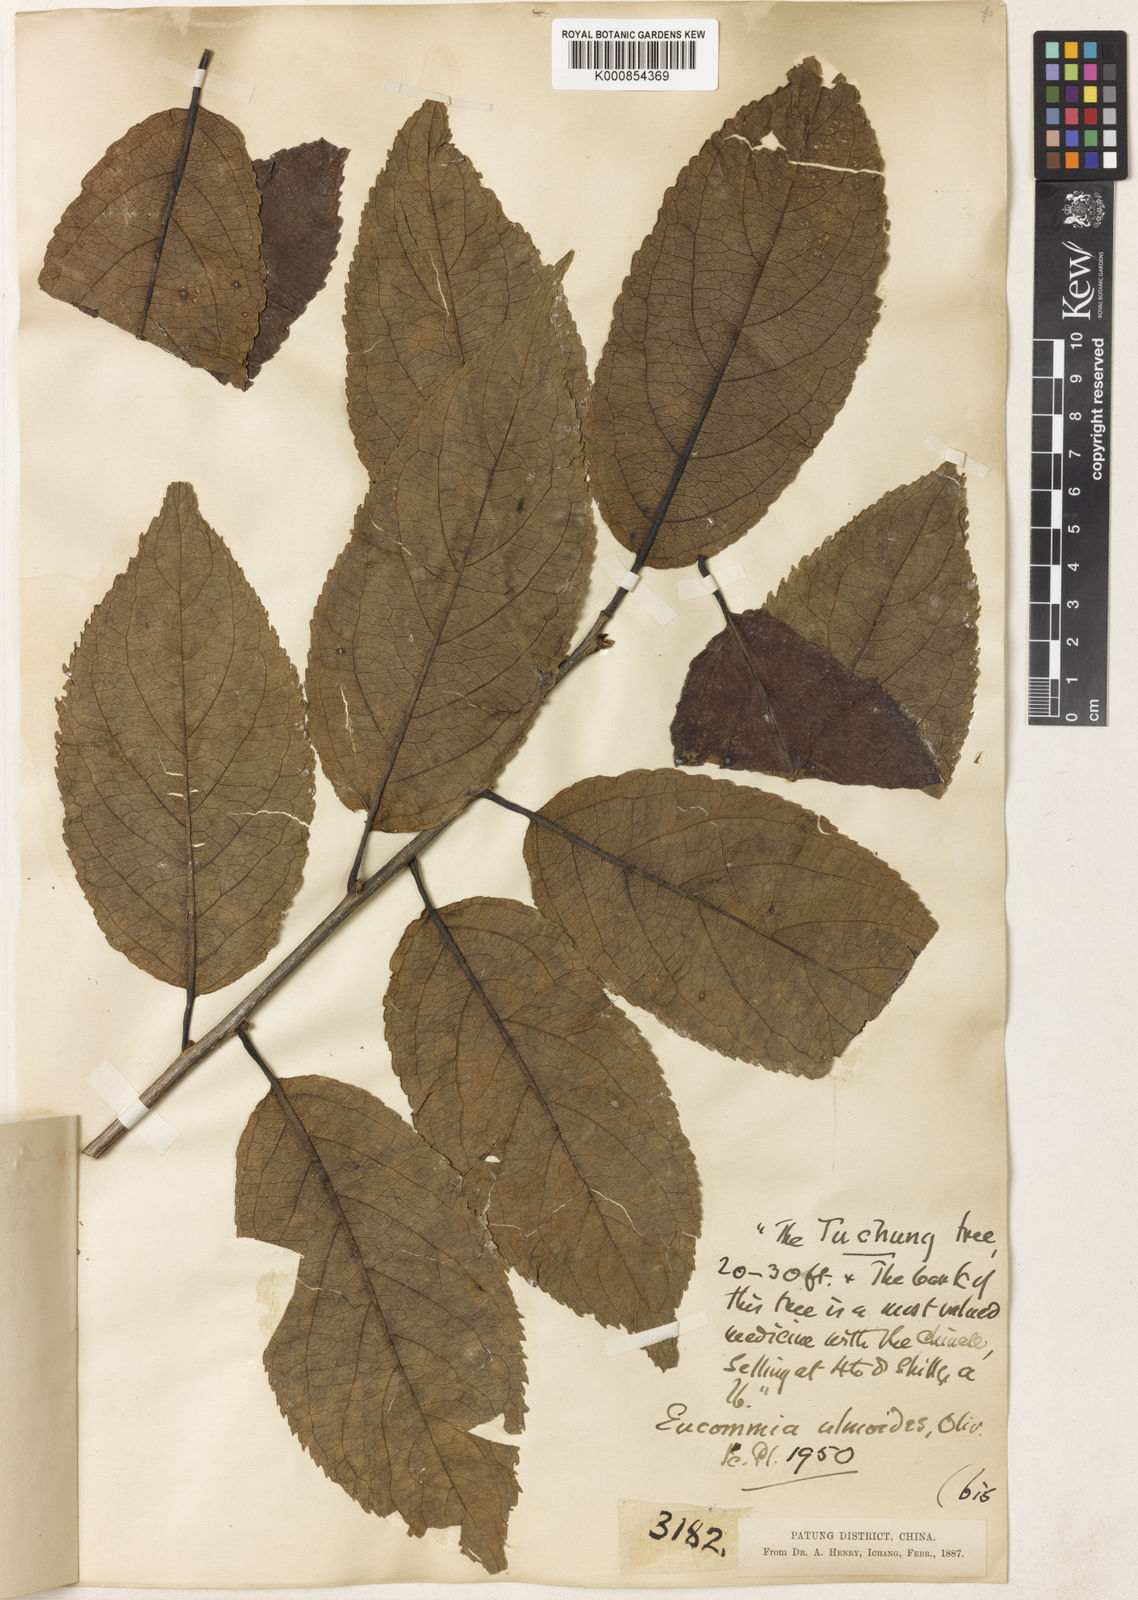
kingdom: Plantae
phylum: Tracheophyta
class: Magnoliopsida
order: Garryales
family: Eucommiaceae
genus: Eucommia
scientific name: Eucommia ulmoides
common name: Woody plant
